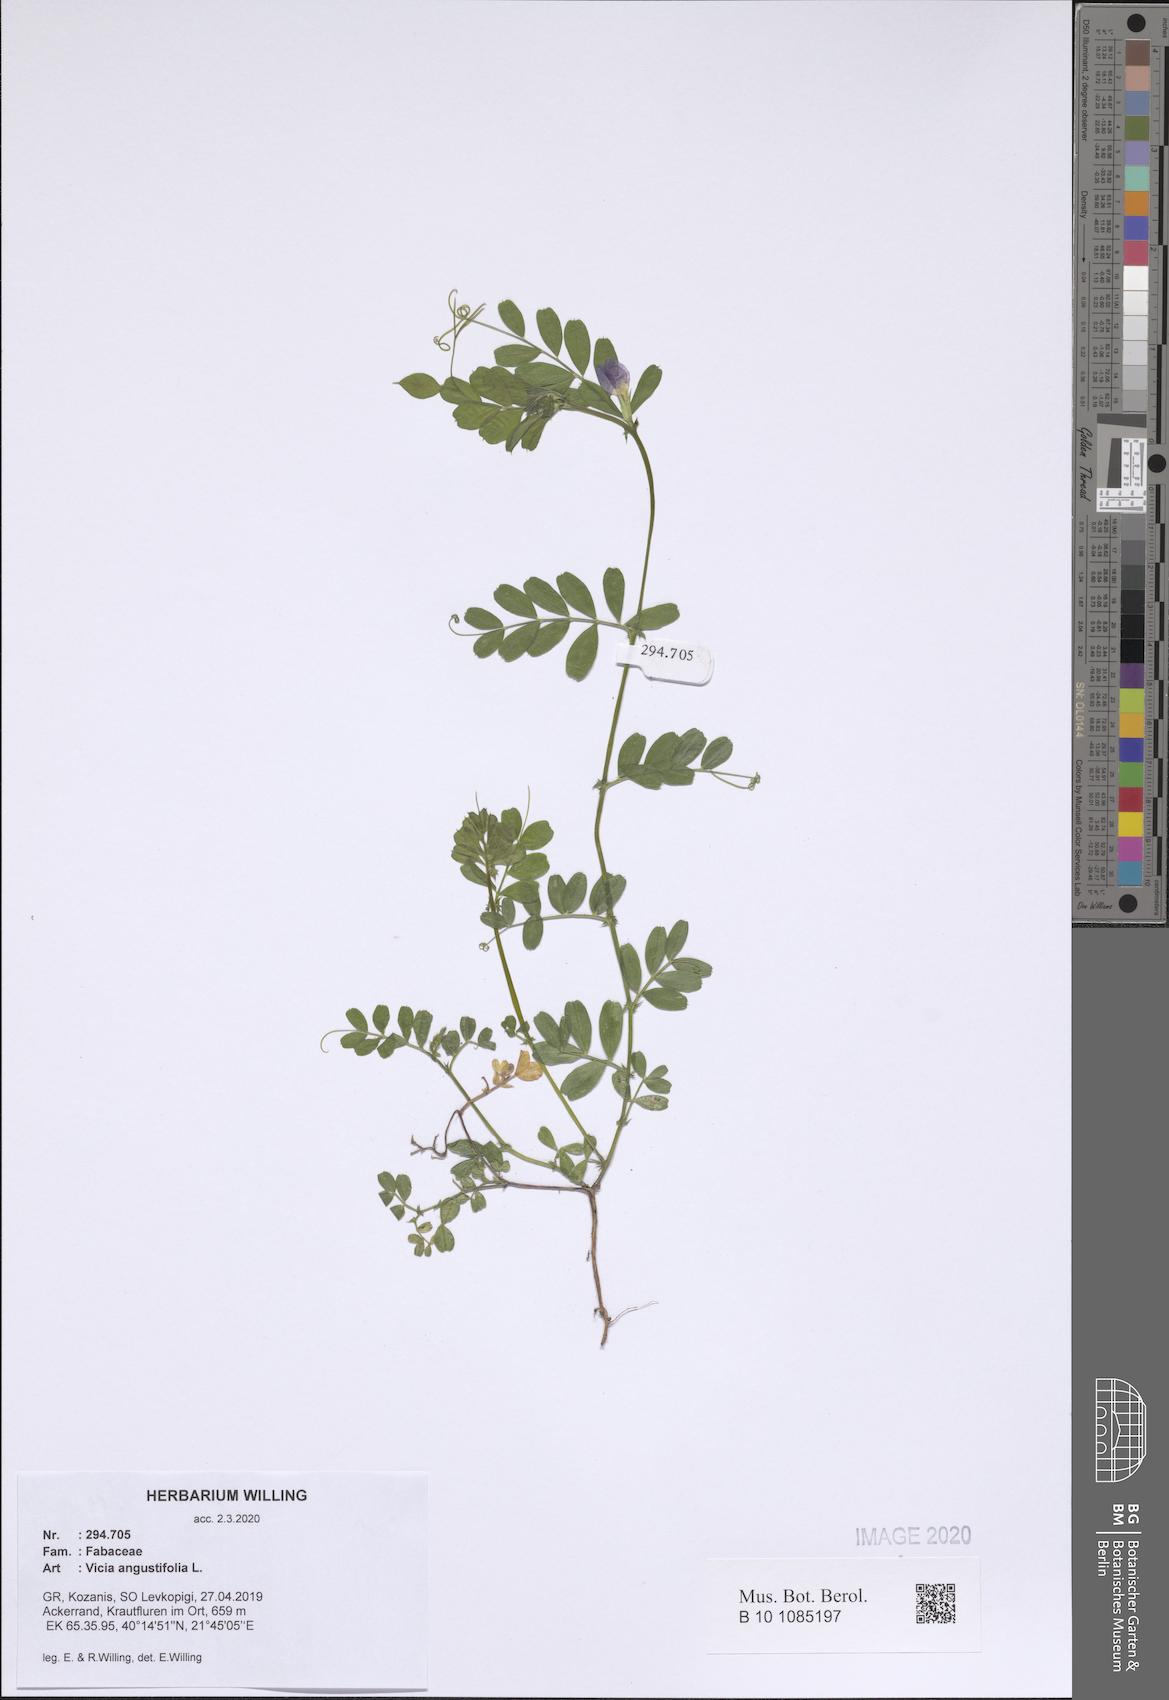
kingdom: Plantae
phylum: Tracheophyta
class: Magnoliopsida
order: Fabales
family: Fabaceae
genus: Vicia
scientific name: Vicia sativa
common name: Garden vetch
